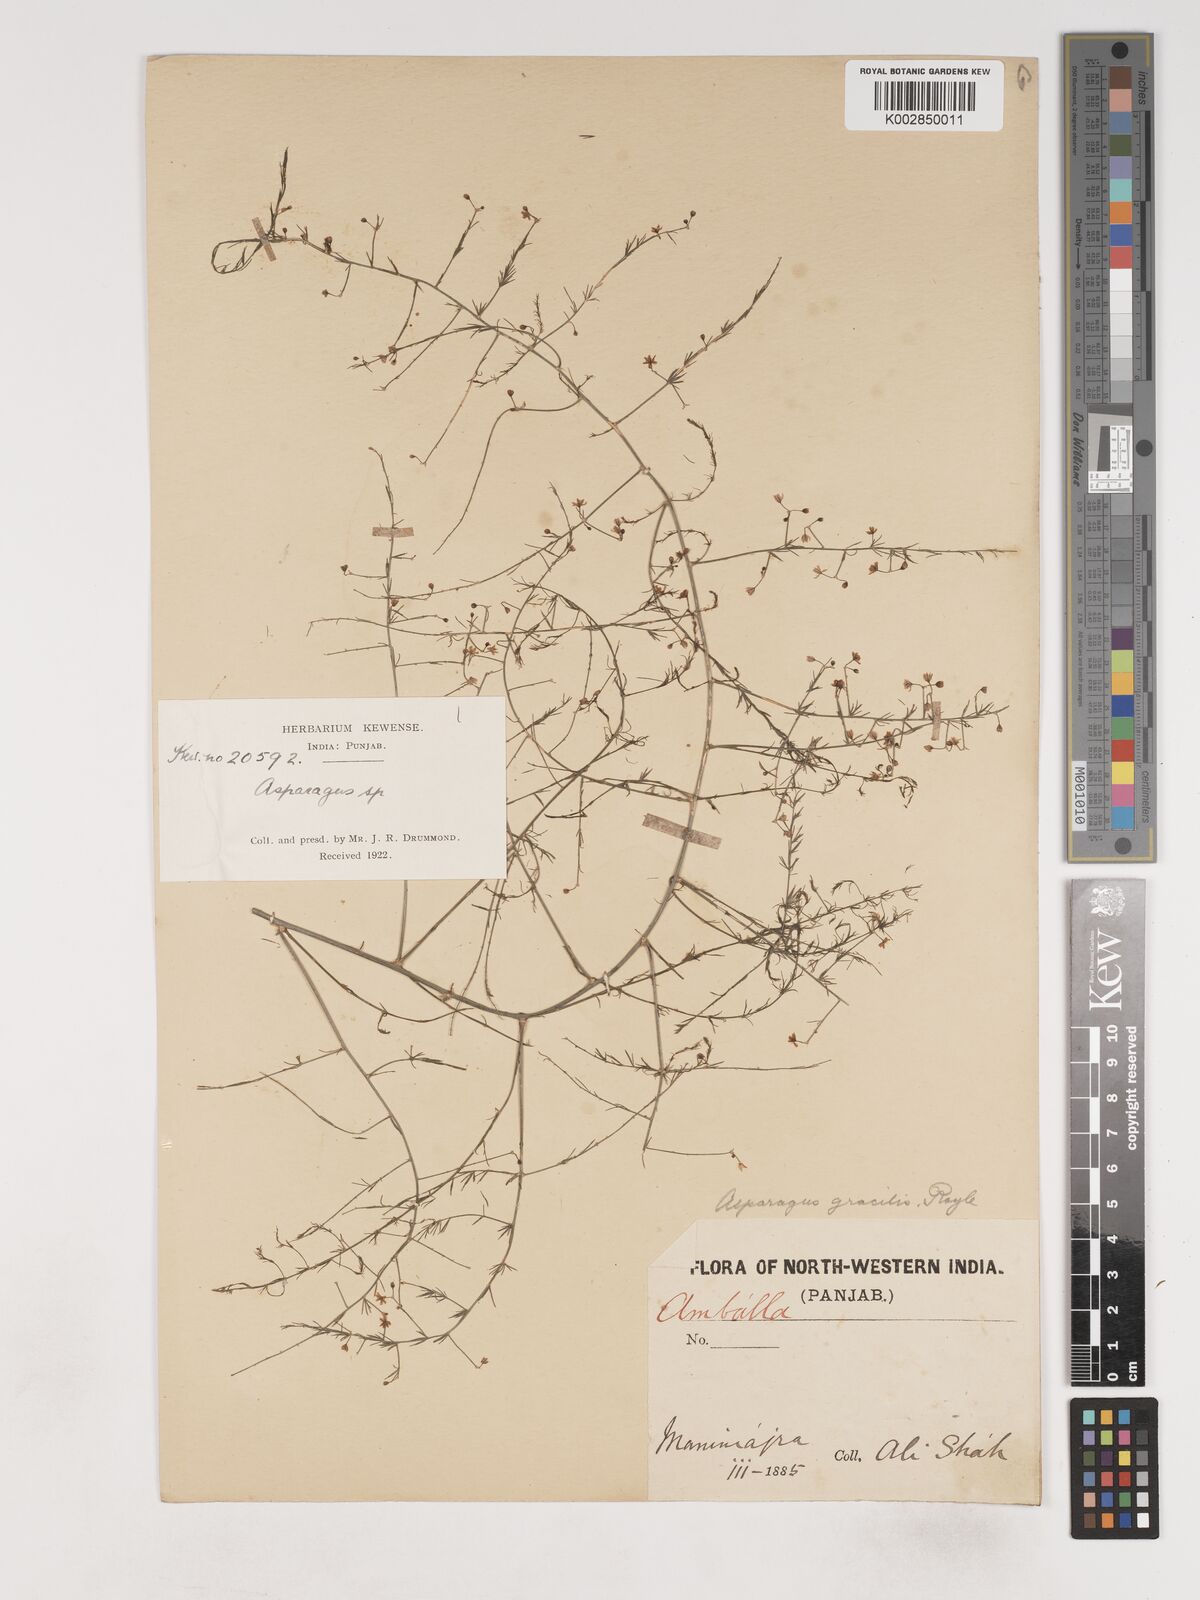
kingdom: Plantae
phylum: Tracheophyta
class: Liliopsida
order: Asparagales
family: Asparagaceae
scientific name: Asparagaceae
